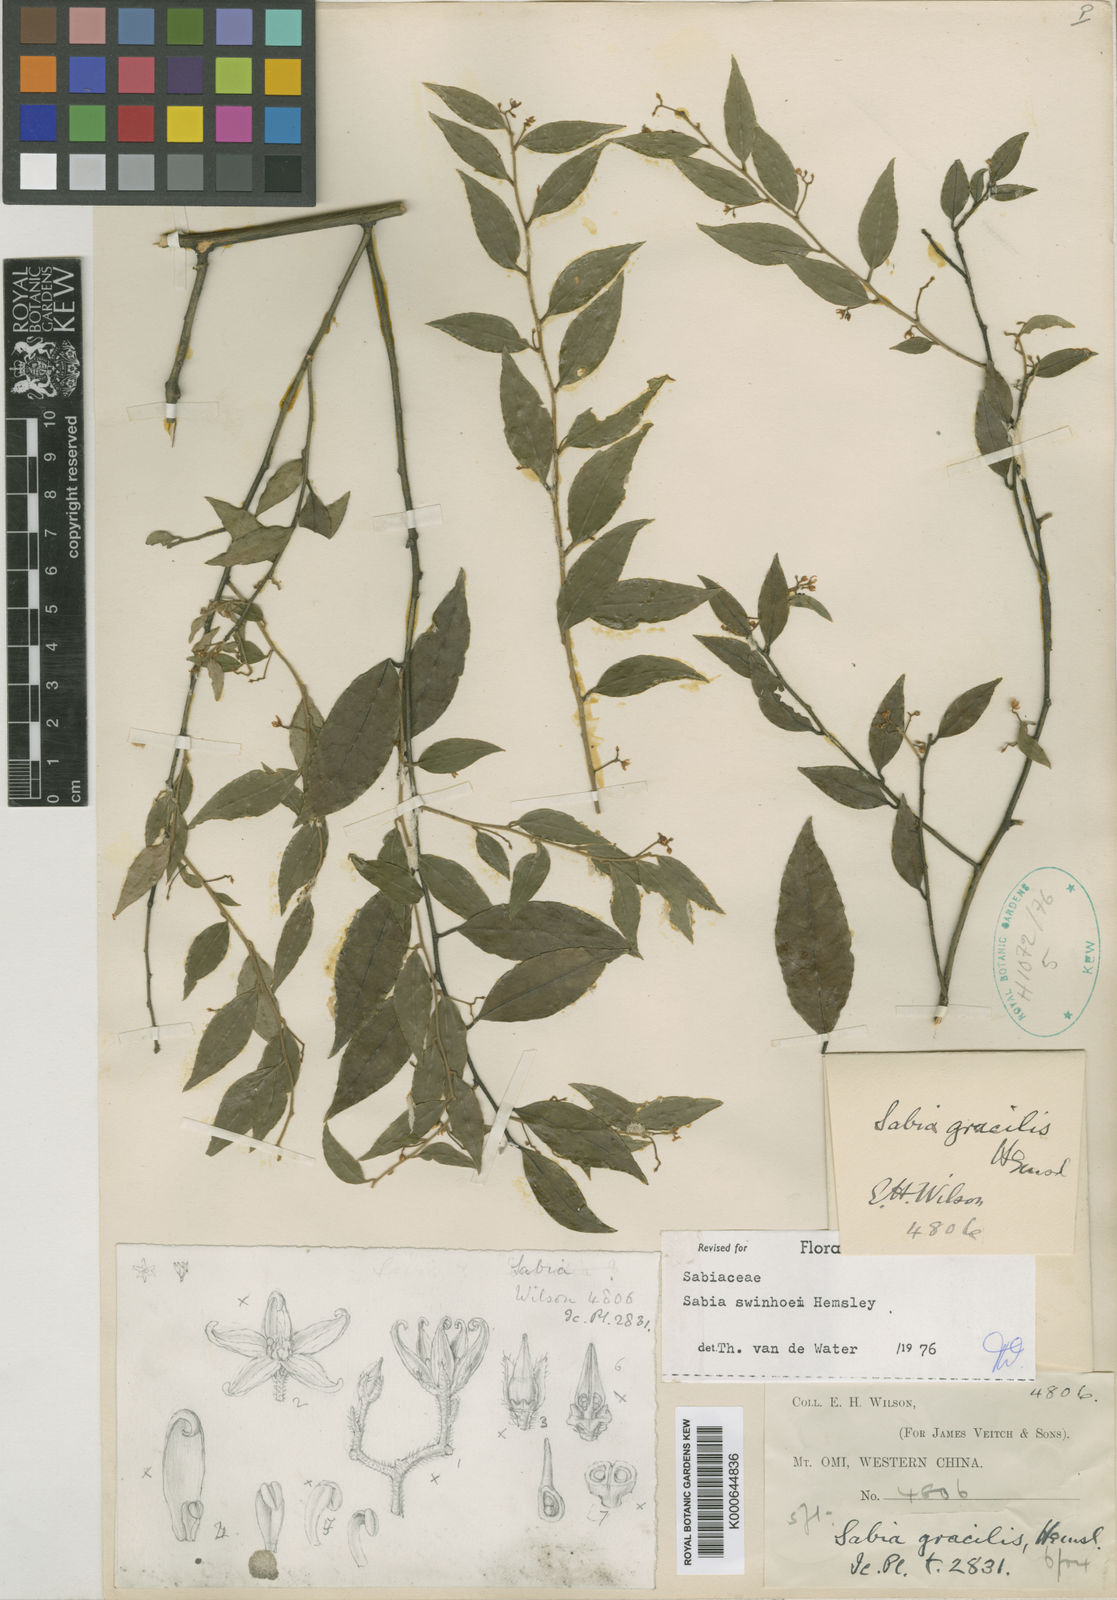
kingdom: Plantae
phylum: Tracheophyta
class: Magnoliopsida
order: Proteales
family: Sabiaceae
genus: Sabia
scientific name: Sabia swinhoei
